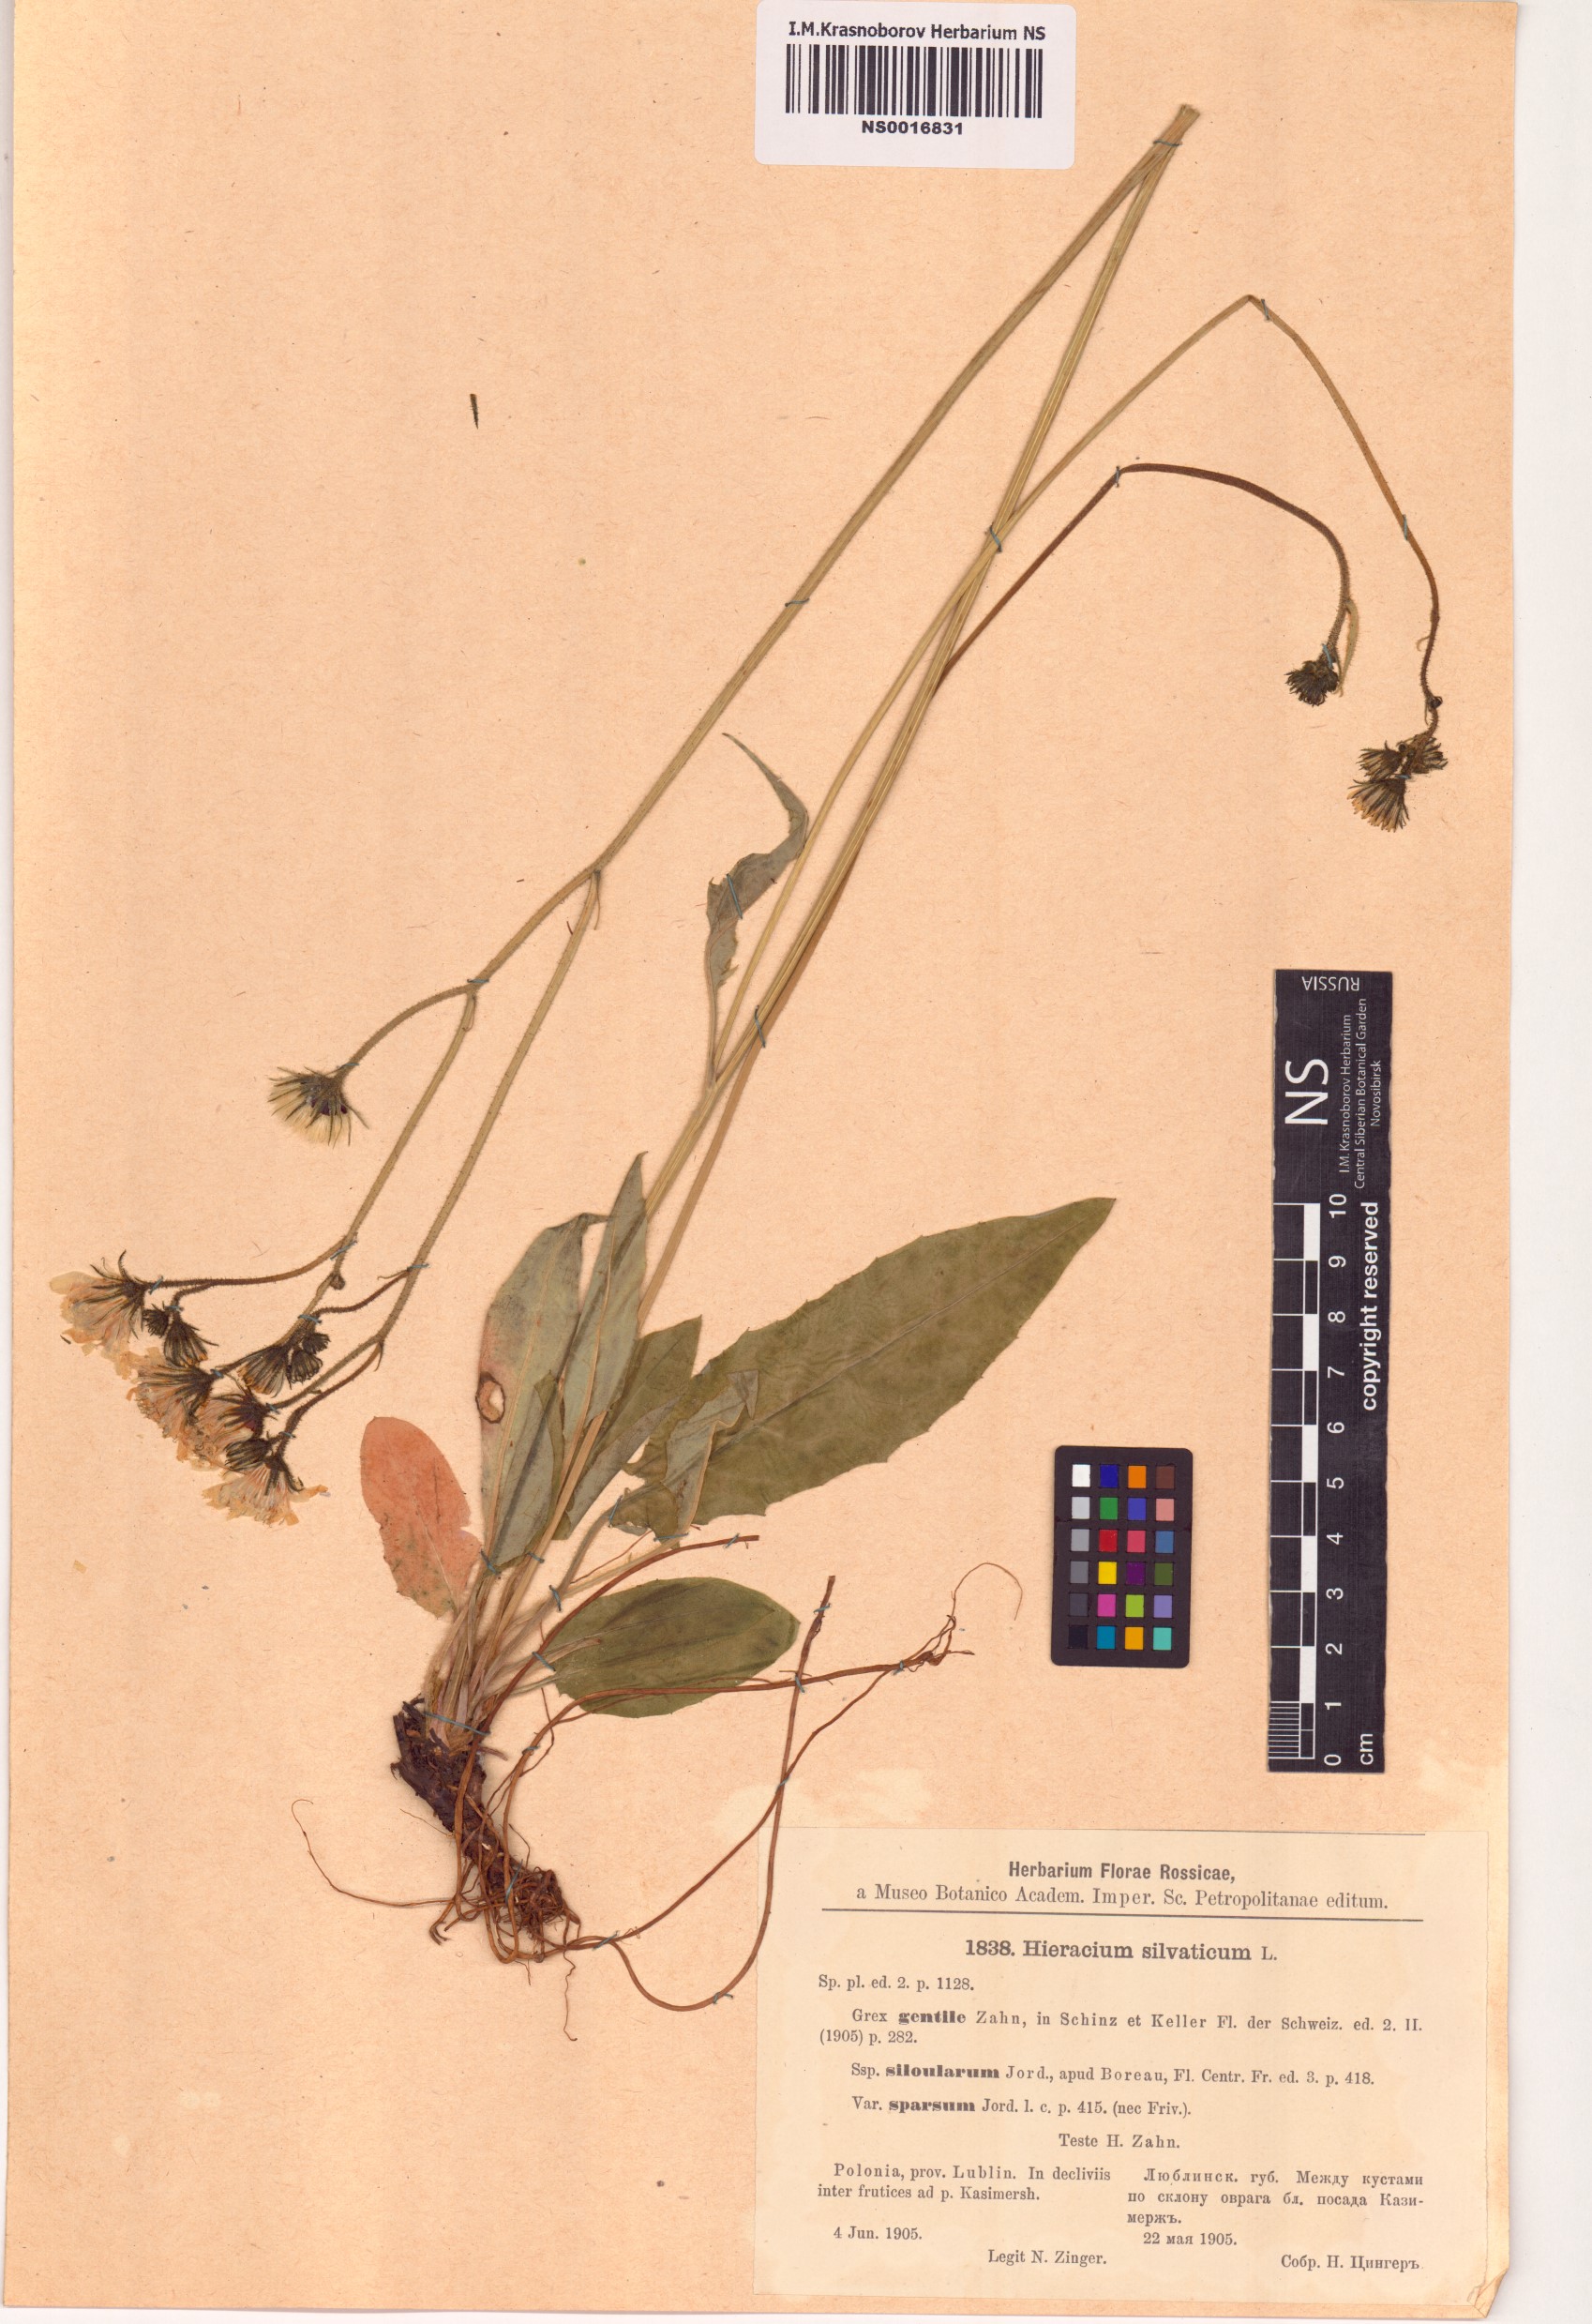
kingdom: Plantae
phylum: Tracheophyta
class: Magnoliopsida
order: Asterales
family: Asteraceae
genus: Hieracium
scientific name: Hieracium sylvaticum
